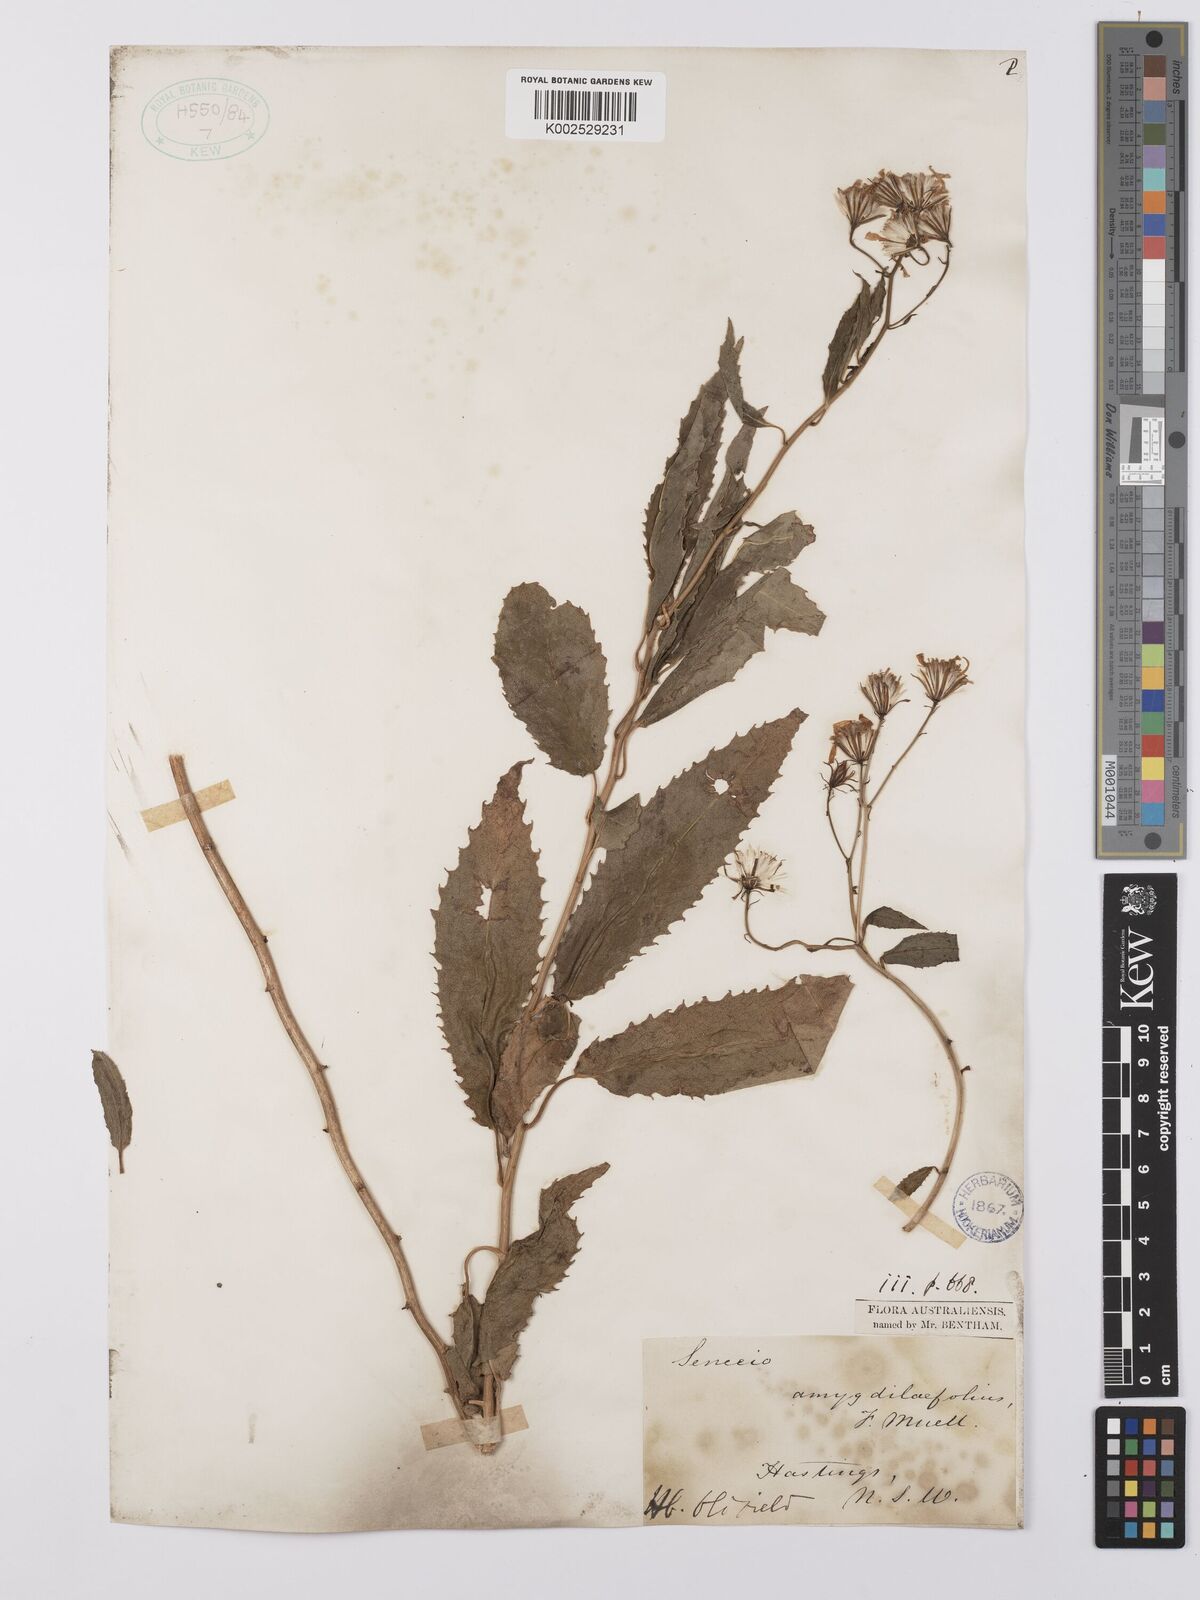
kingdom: Plantae
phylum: Tracheophyta
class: Magnoliopsida
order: Asterales
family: Asteraceae
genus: Lordhowea
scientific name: Lordhowea amygdalifolia
